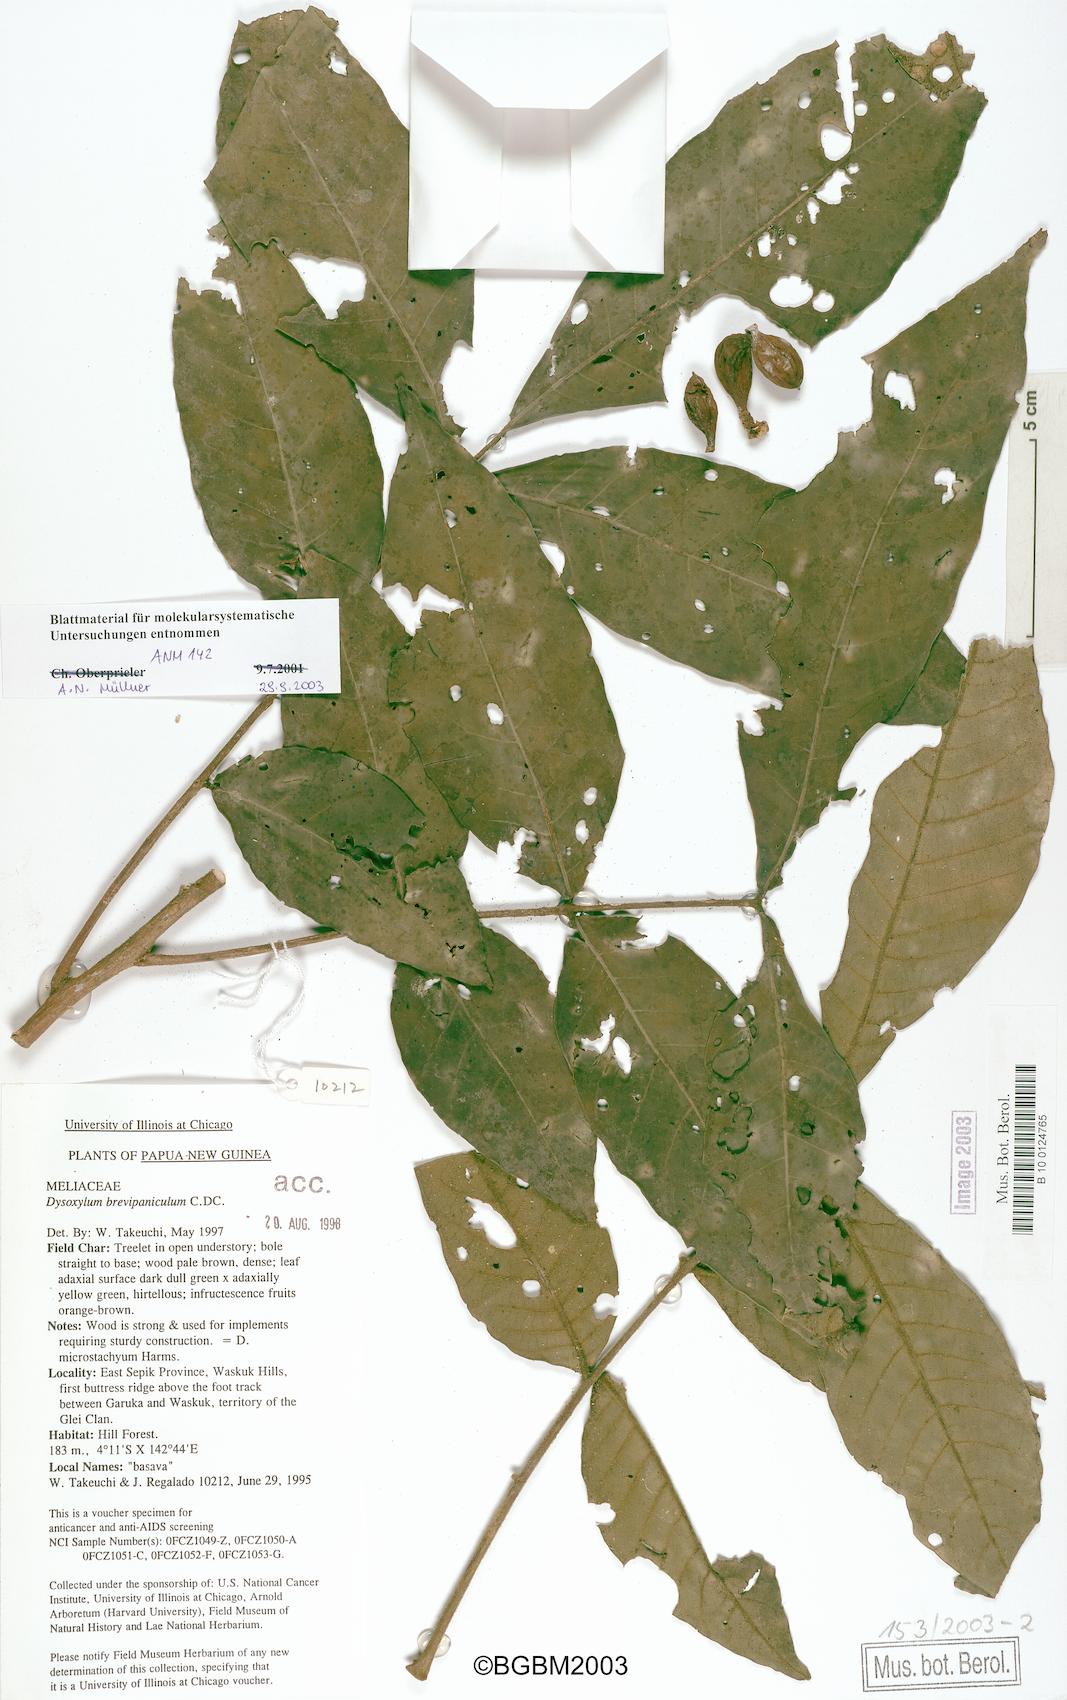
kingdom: Plantae
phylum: Tracheophyta
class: Magnoliopsida
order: Sapindales
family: Meliaceae
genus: Epicharis
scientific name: Epicharis brevipanicula
